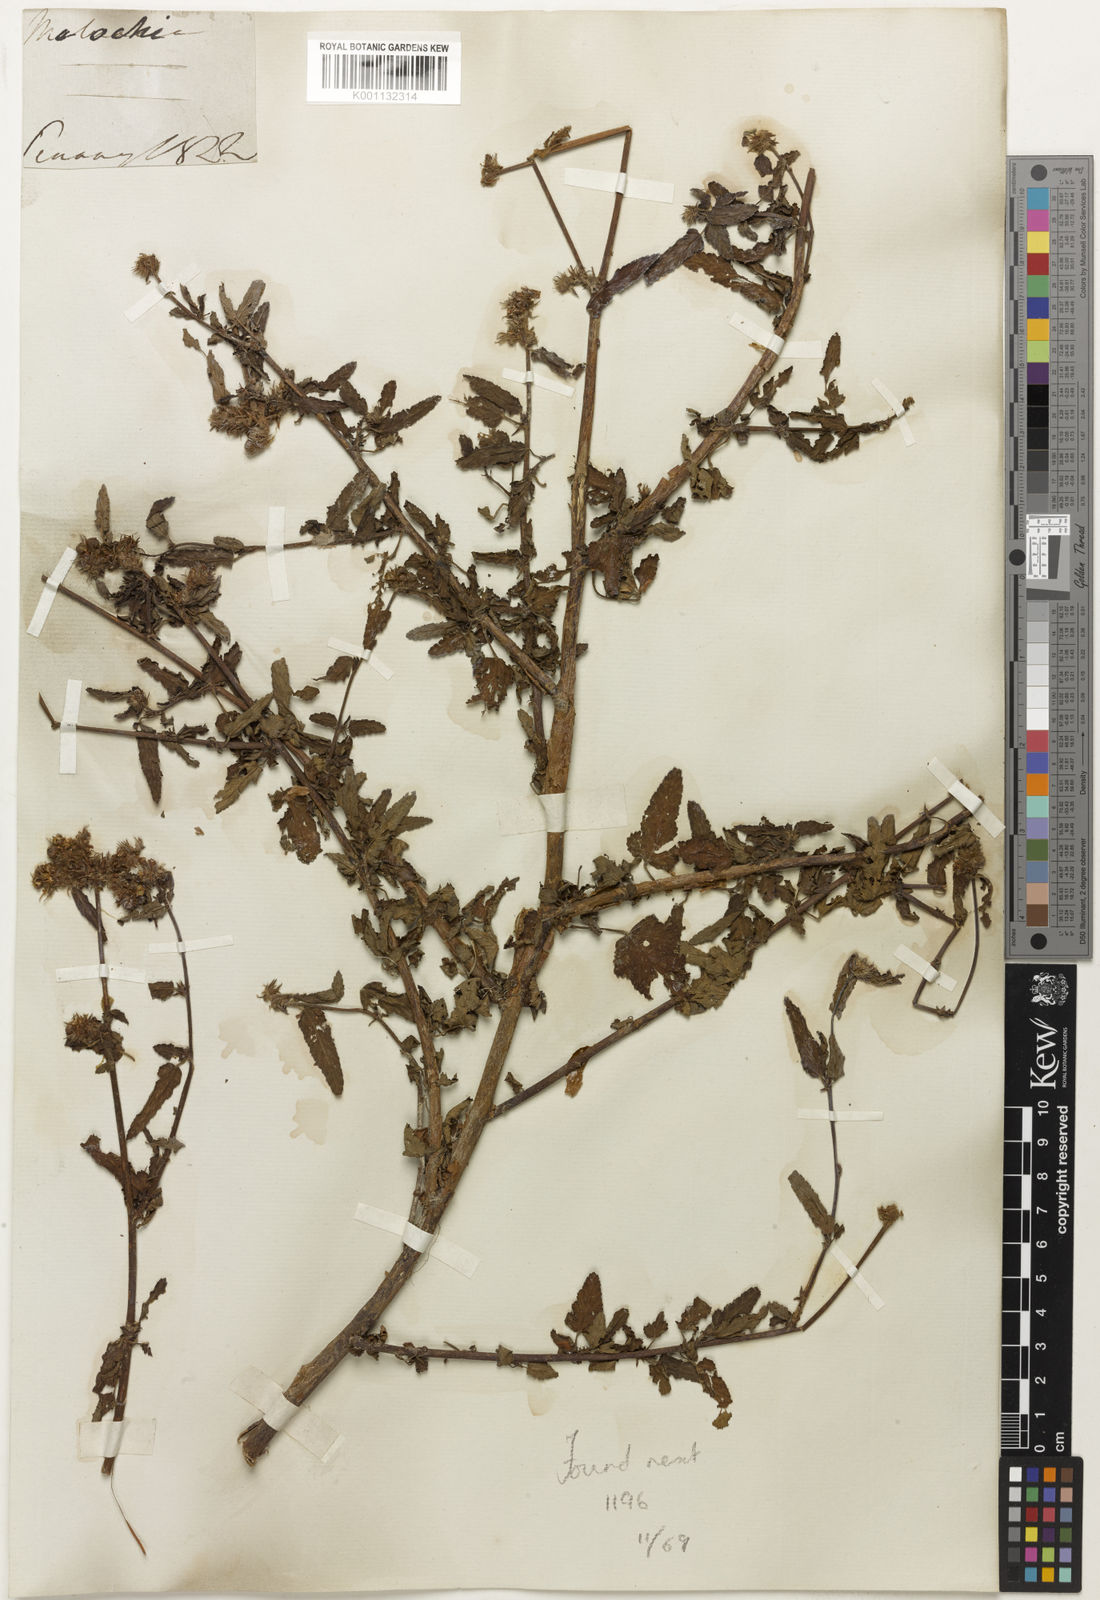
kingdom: Plantae
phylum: Tracheophyta
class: Magnoliopsida
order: Malvales
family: Malvaceae
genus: Melochia
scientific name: Melochia
